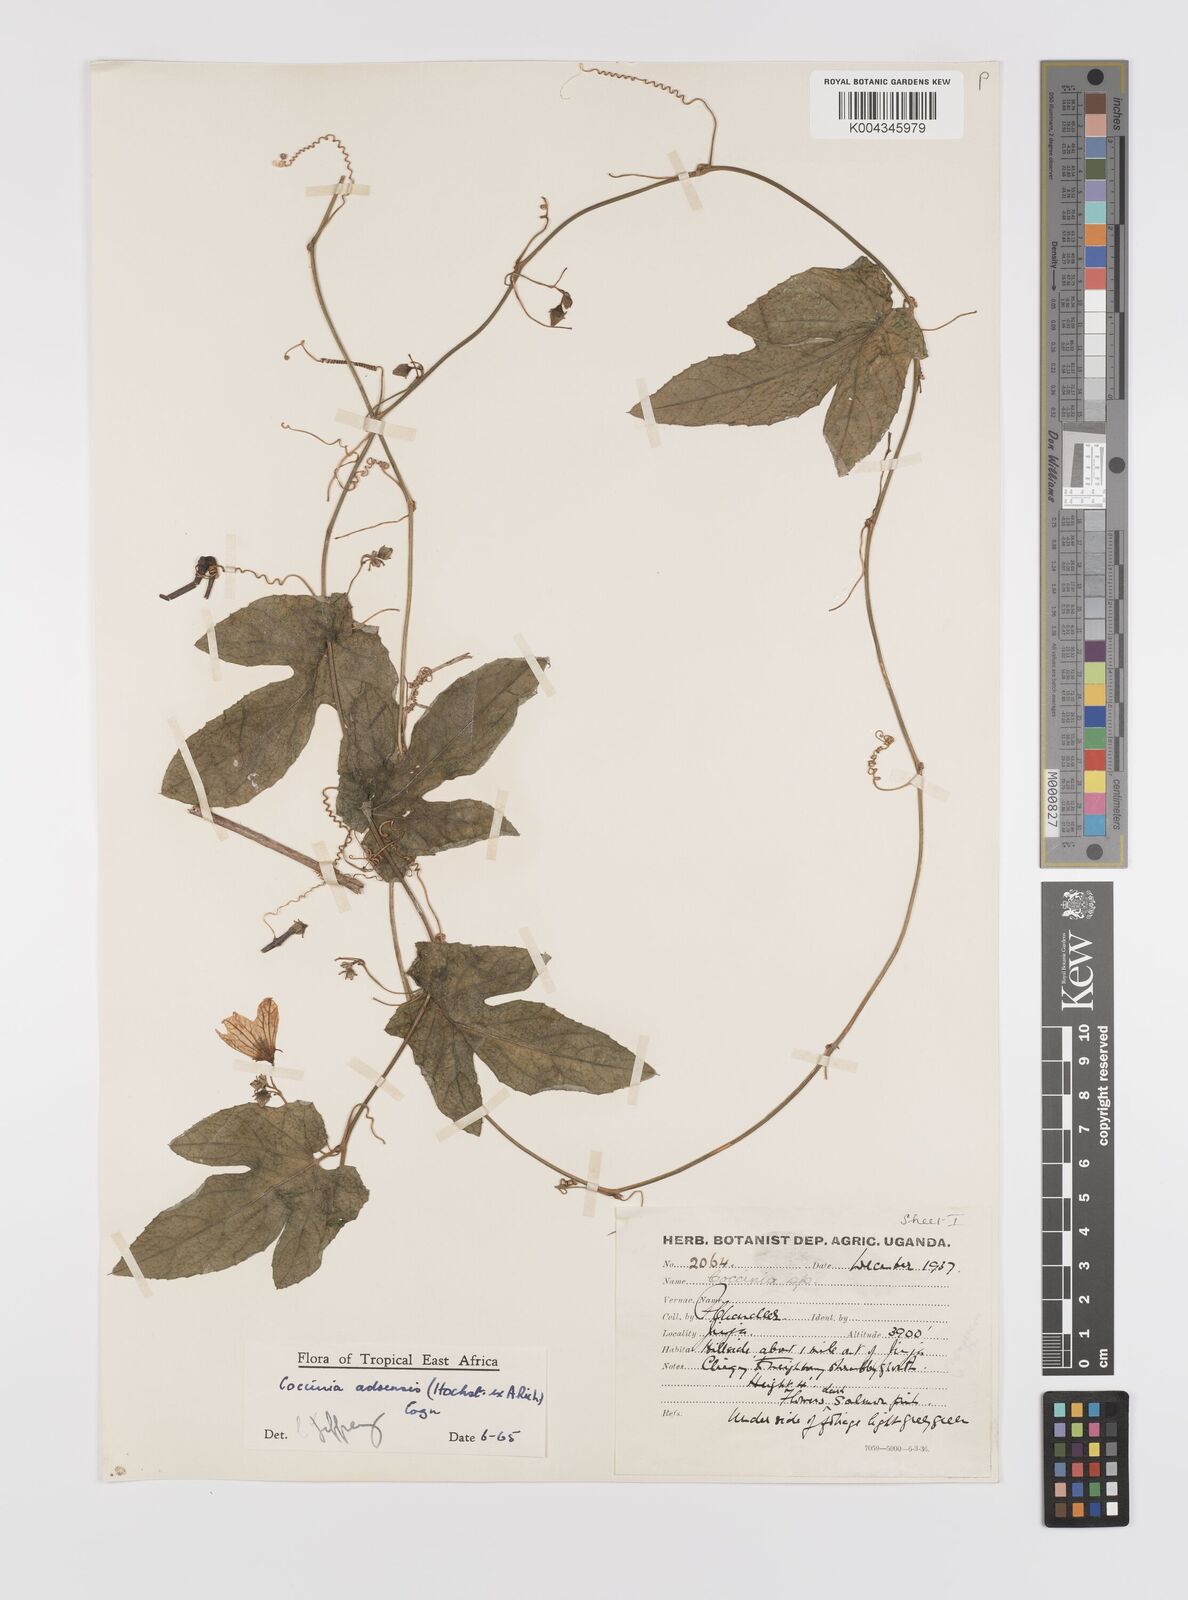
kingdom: Plantae
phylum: Tracheophyta
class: Magnoliopsida
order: Cucurbitales
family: Cucurbitaceae
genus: Coccinia
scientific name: Coccinia adoensis
